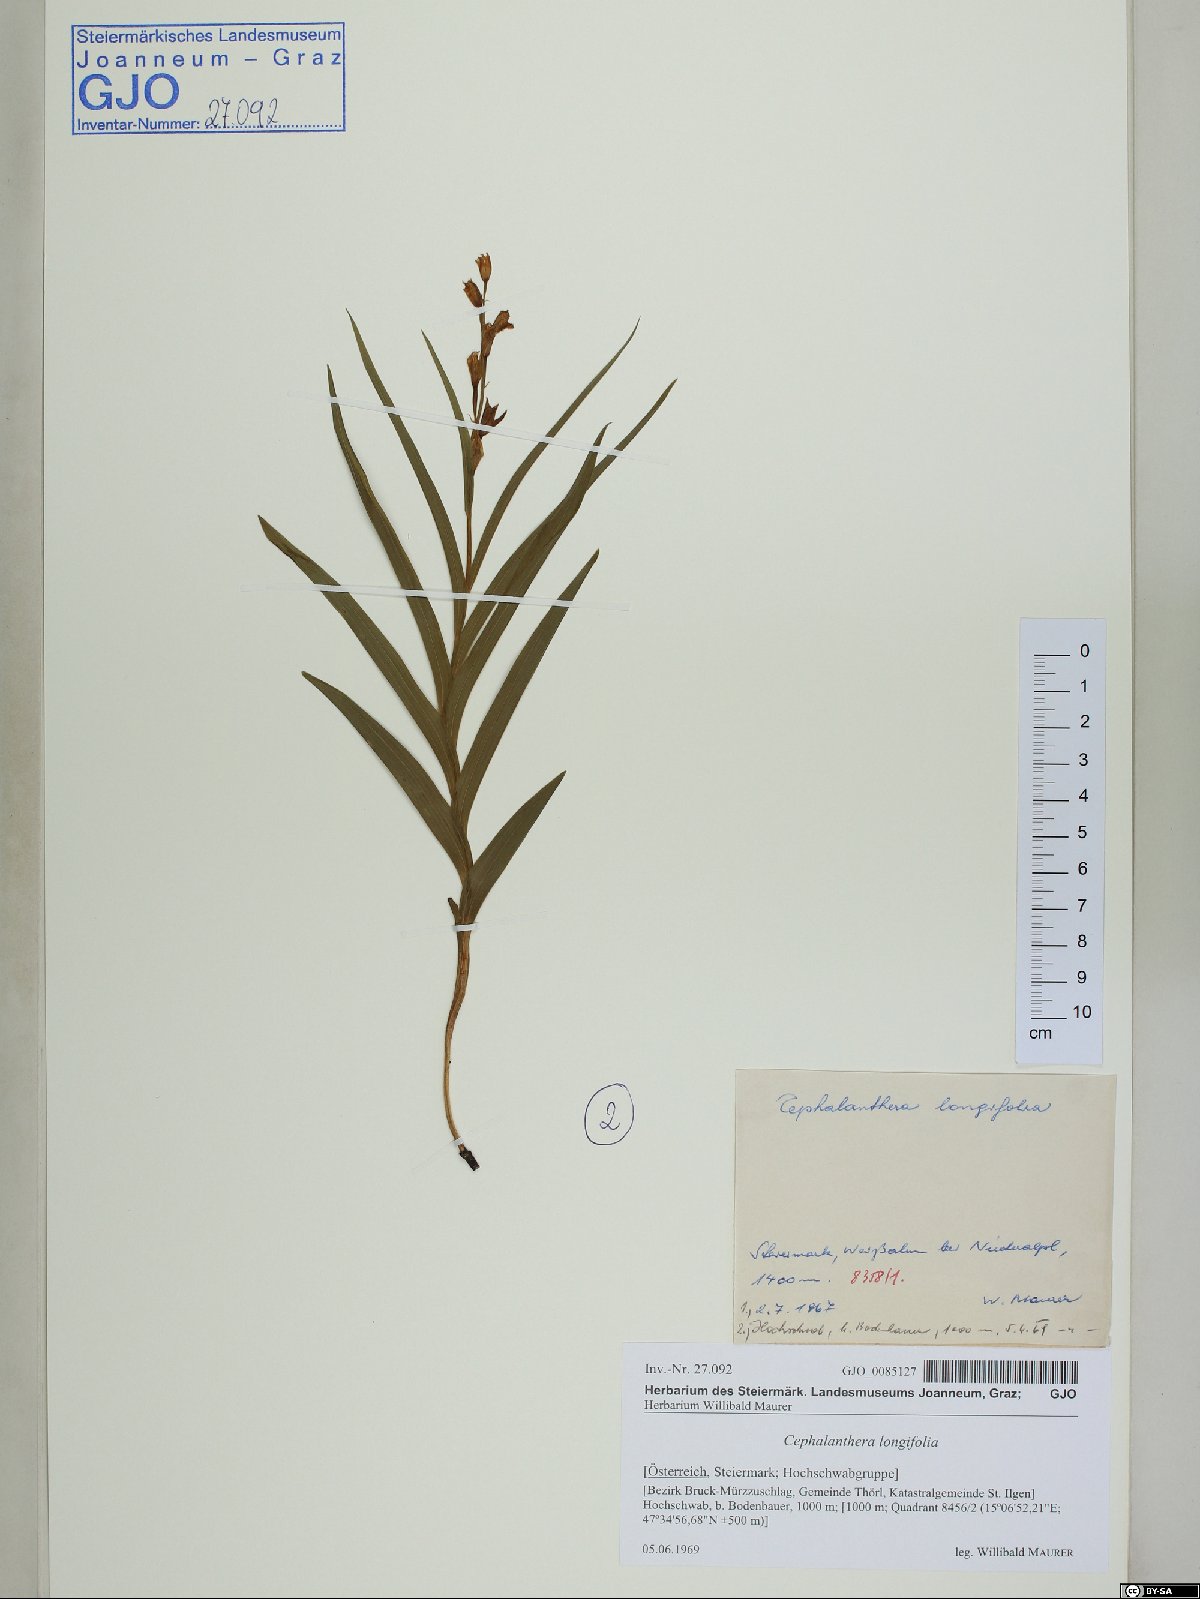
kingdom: Plantae
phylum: Tracheophyta
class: Liliopsida
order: Asparagales
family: Orchidaceae
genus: Cephalanthera
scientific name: Cephalanthera longifolia
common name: Narrow-leaved helleborine
